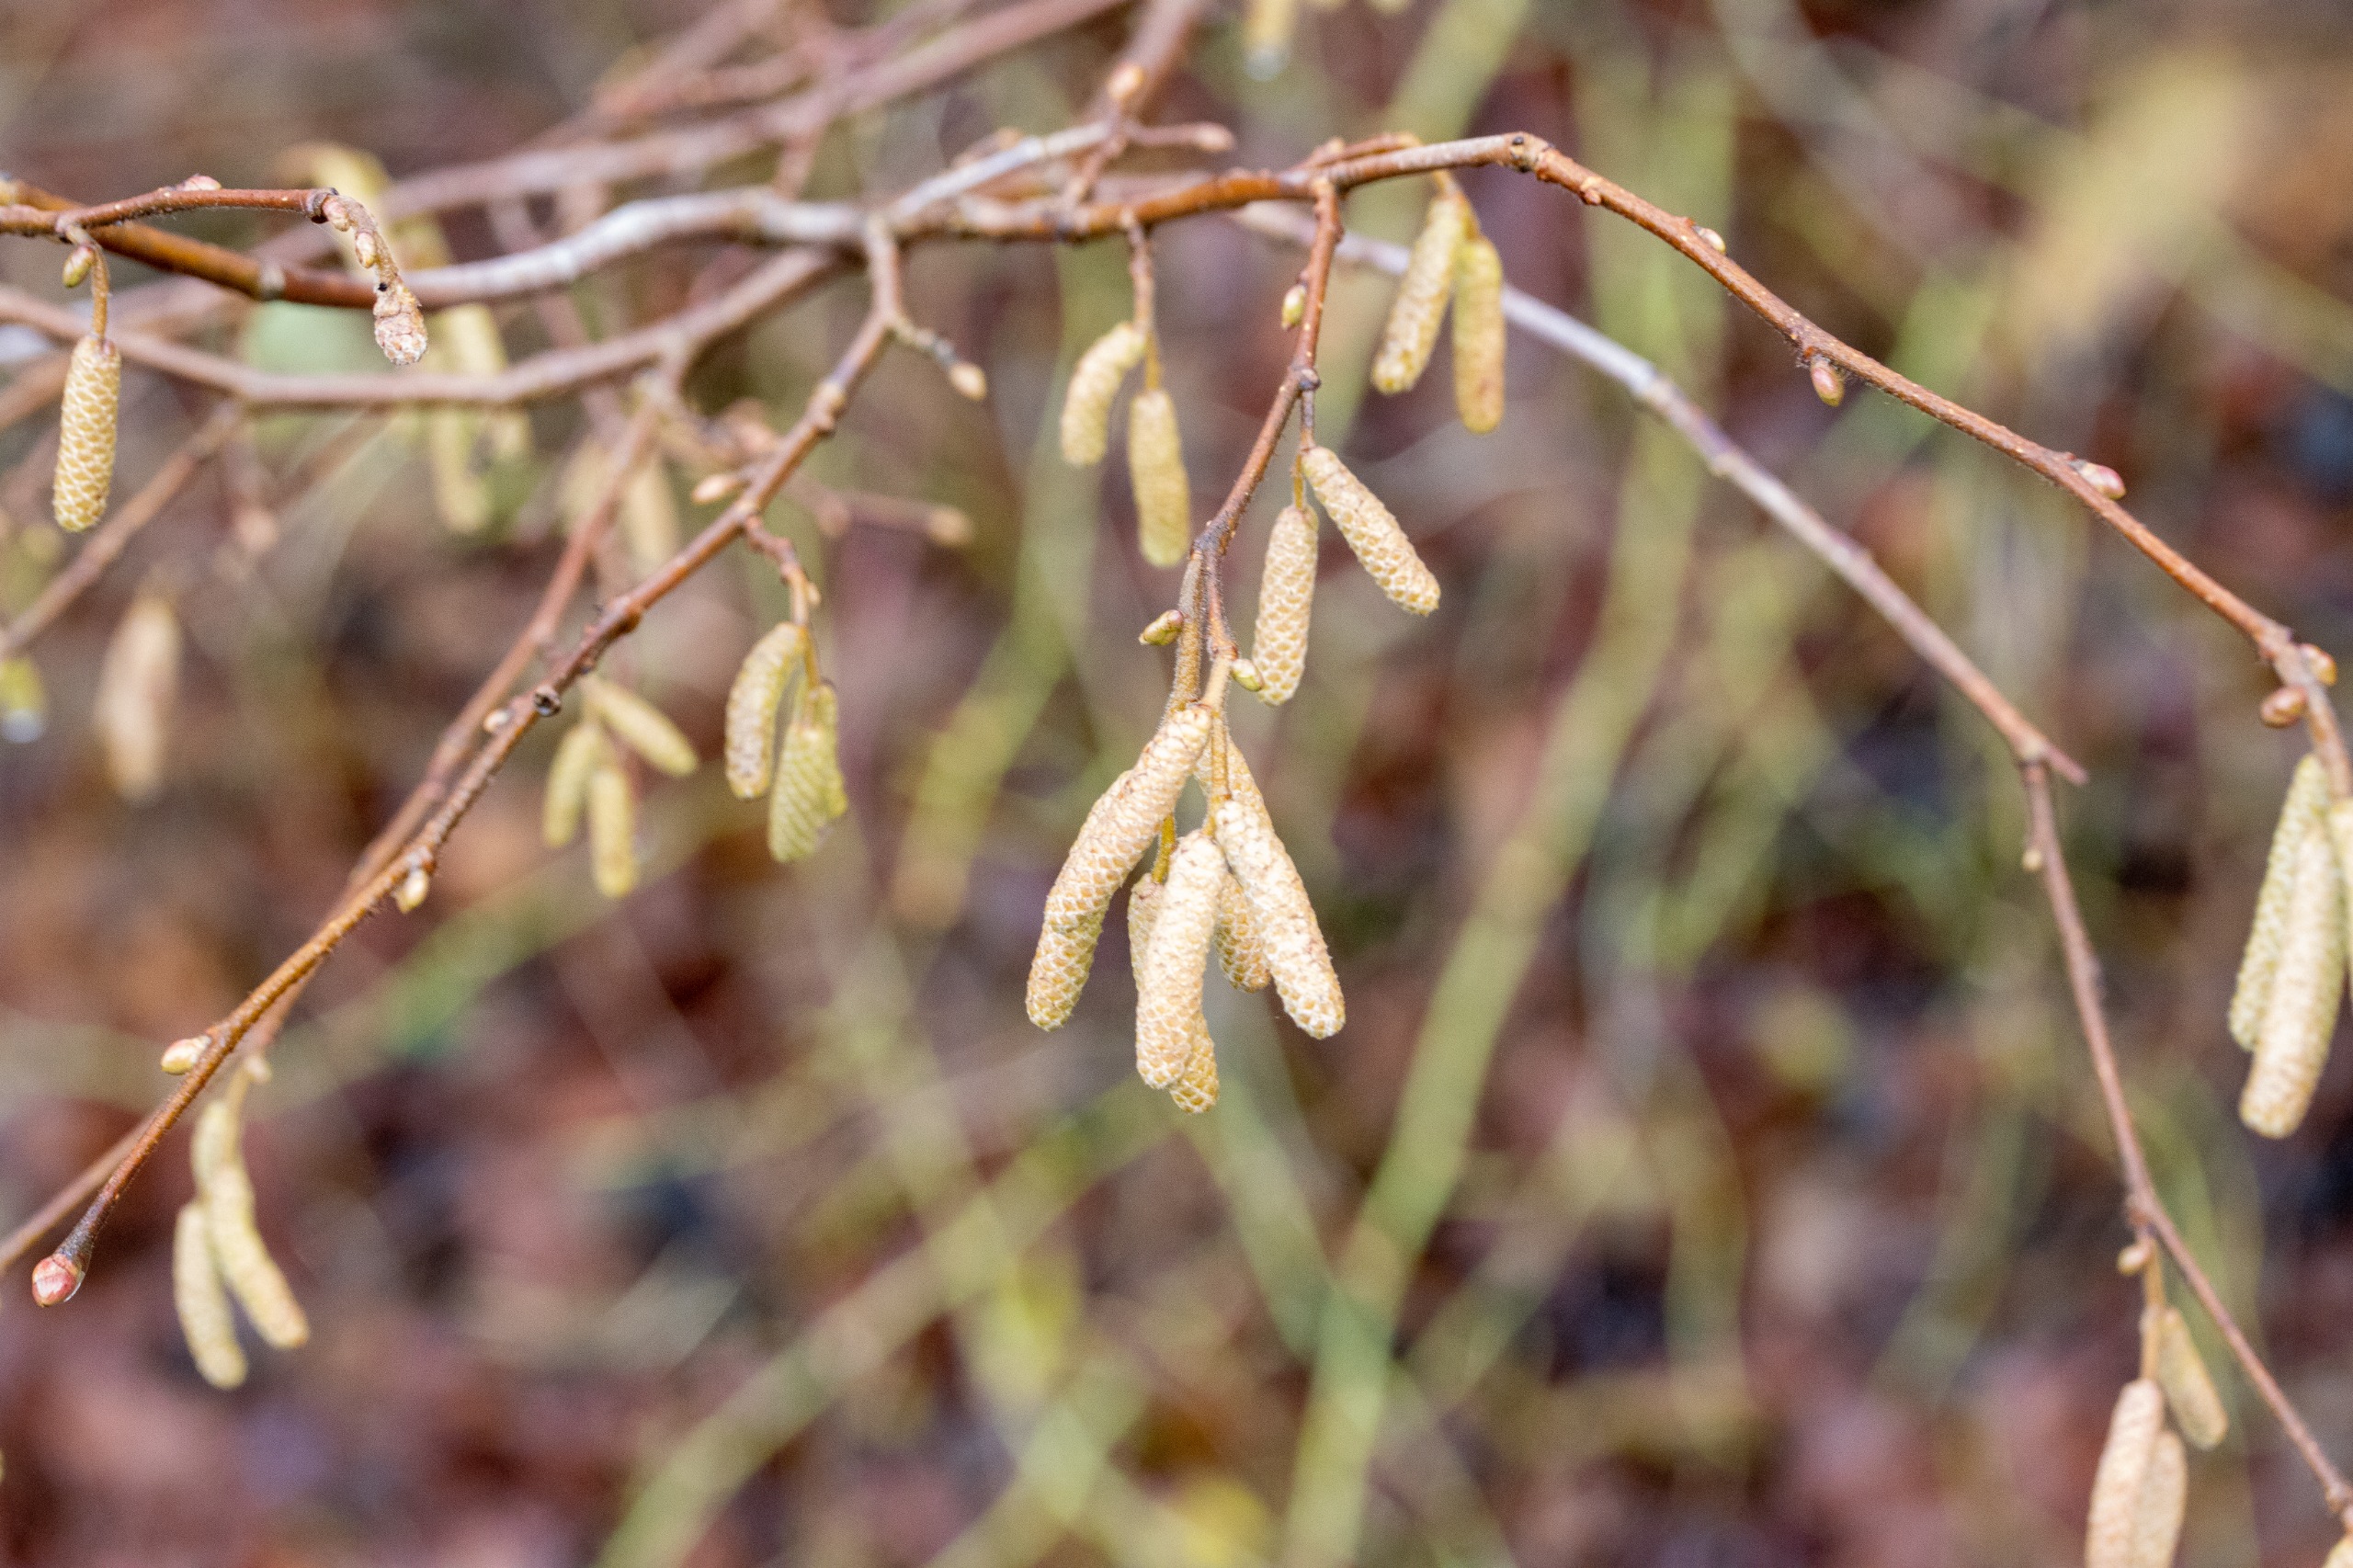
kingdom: Plantae
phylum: Tracheophyta
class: Magnoliopsida
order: Fagales
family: Betulaceae
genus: Corylus
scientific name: Corylus avellana
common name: Hassel
